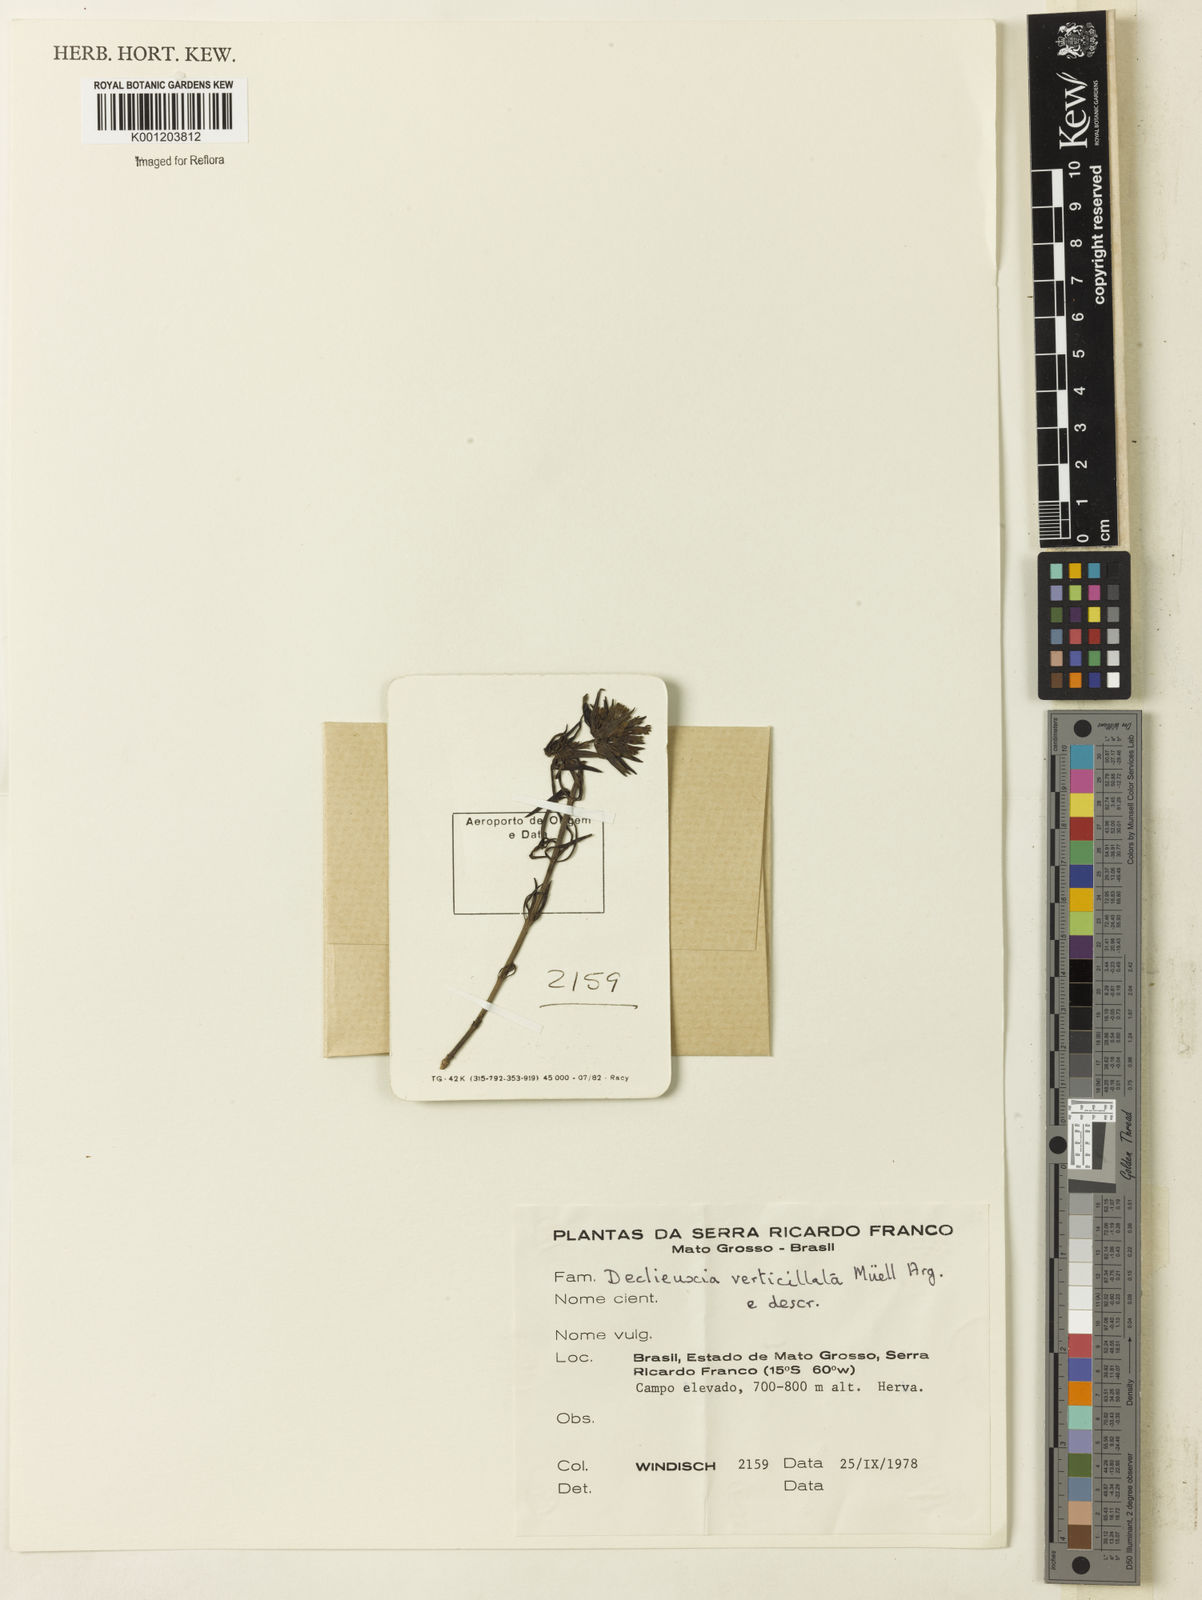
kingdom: Plantae
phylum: Tracheophyta
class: Magnoliopsida
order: Gentianales
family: Rubiaceae
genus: Declieuxia
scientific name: Declieuxia
